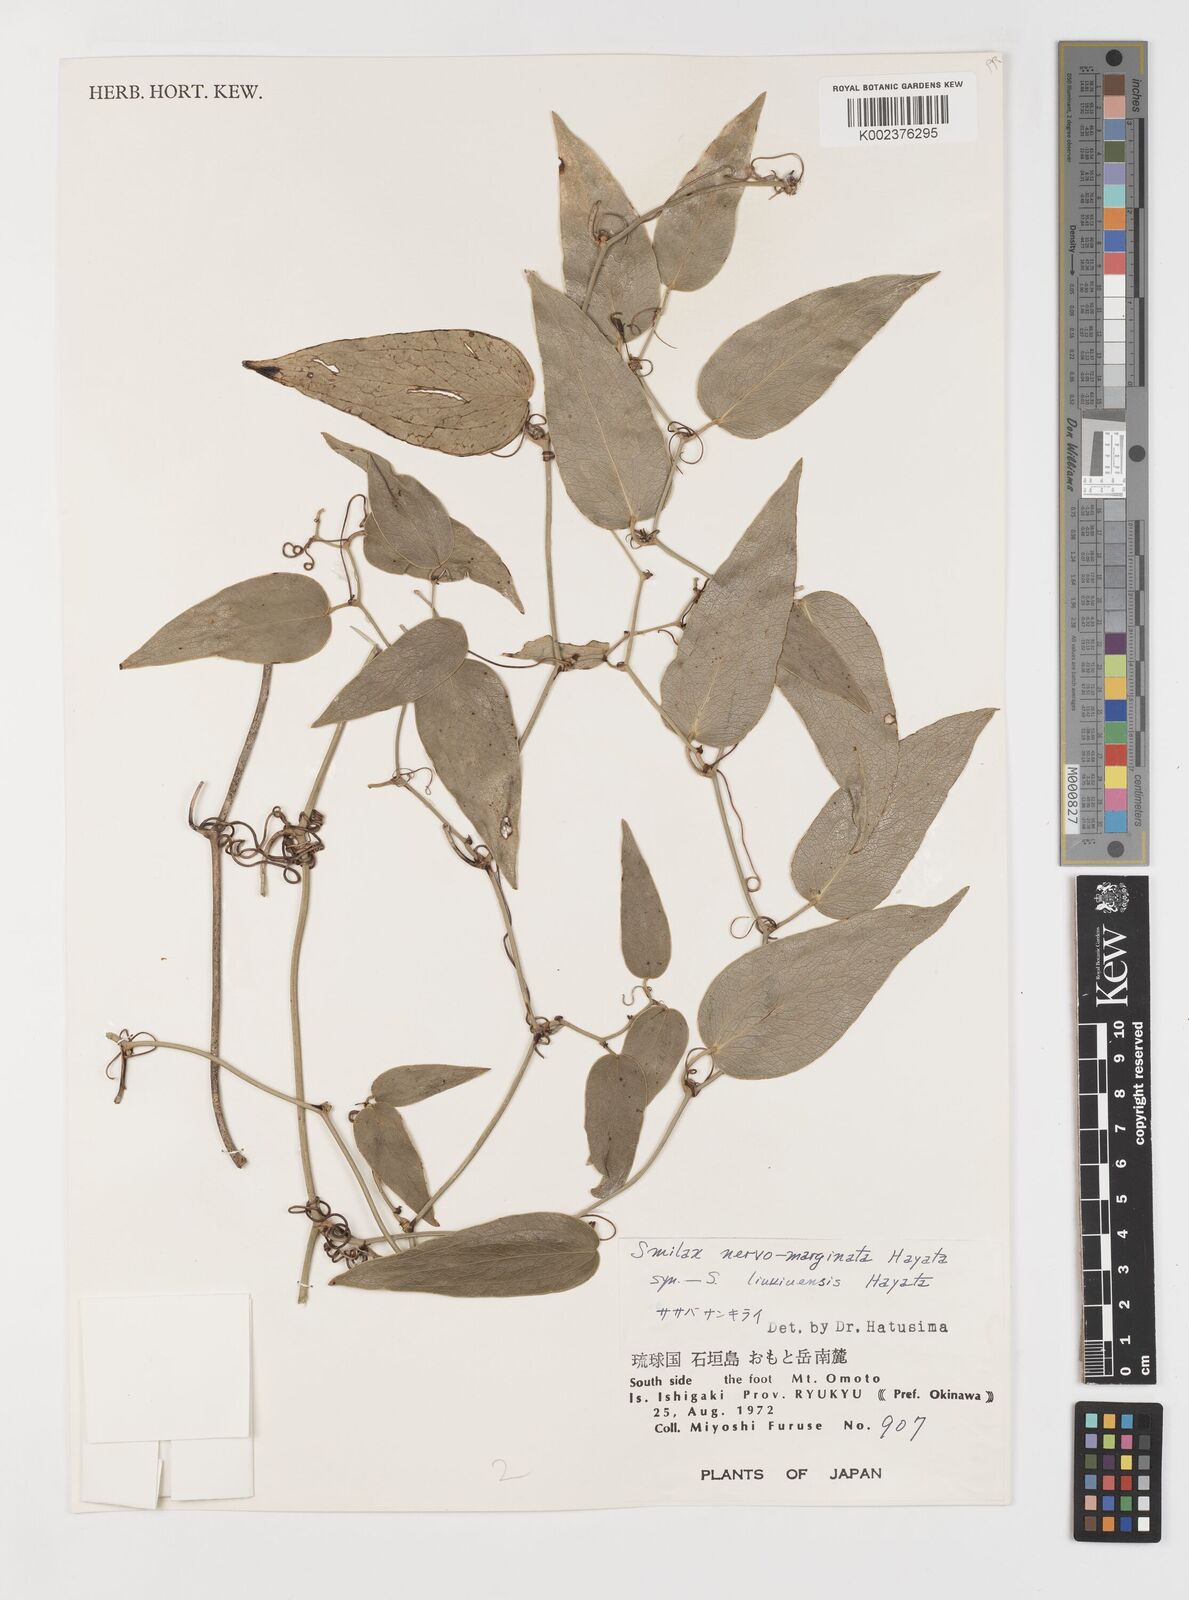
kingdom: Plantae
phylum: Tracheophyta
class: Liliopsida
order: Liliales
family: Smilacaceae
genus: Smilax
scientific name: Smilax nervomarginata
